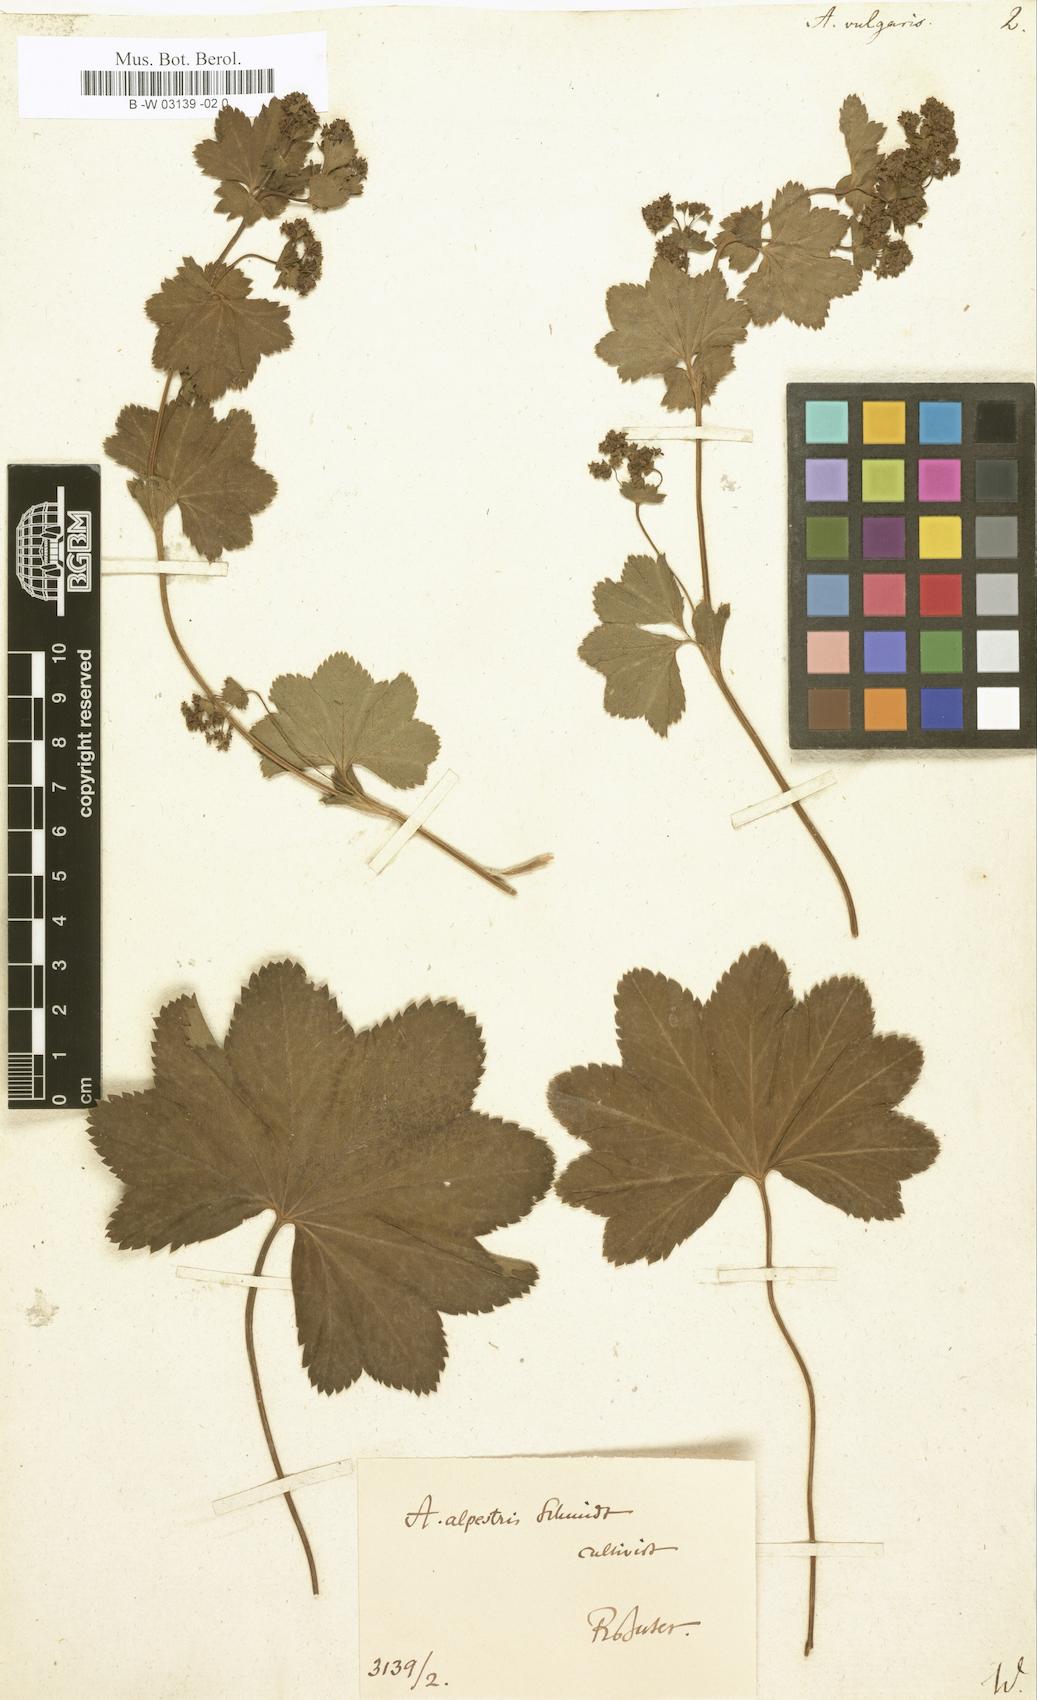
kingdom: Plantae
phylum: Tracheophyta
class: Magnoliopsida
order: Rosales
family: Rosaceae
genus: Alchemilla
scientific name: Alchemilla vulgaris
